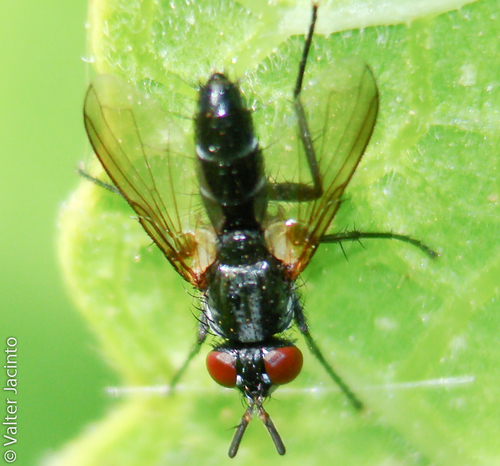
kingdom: Animalia
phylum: Arthropoda
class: Insecta
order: Diptera
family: Tachinidae
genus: Minthodes
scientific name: Minthodes diversipes
